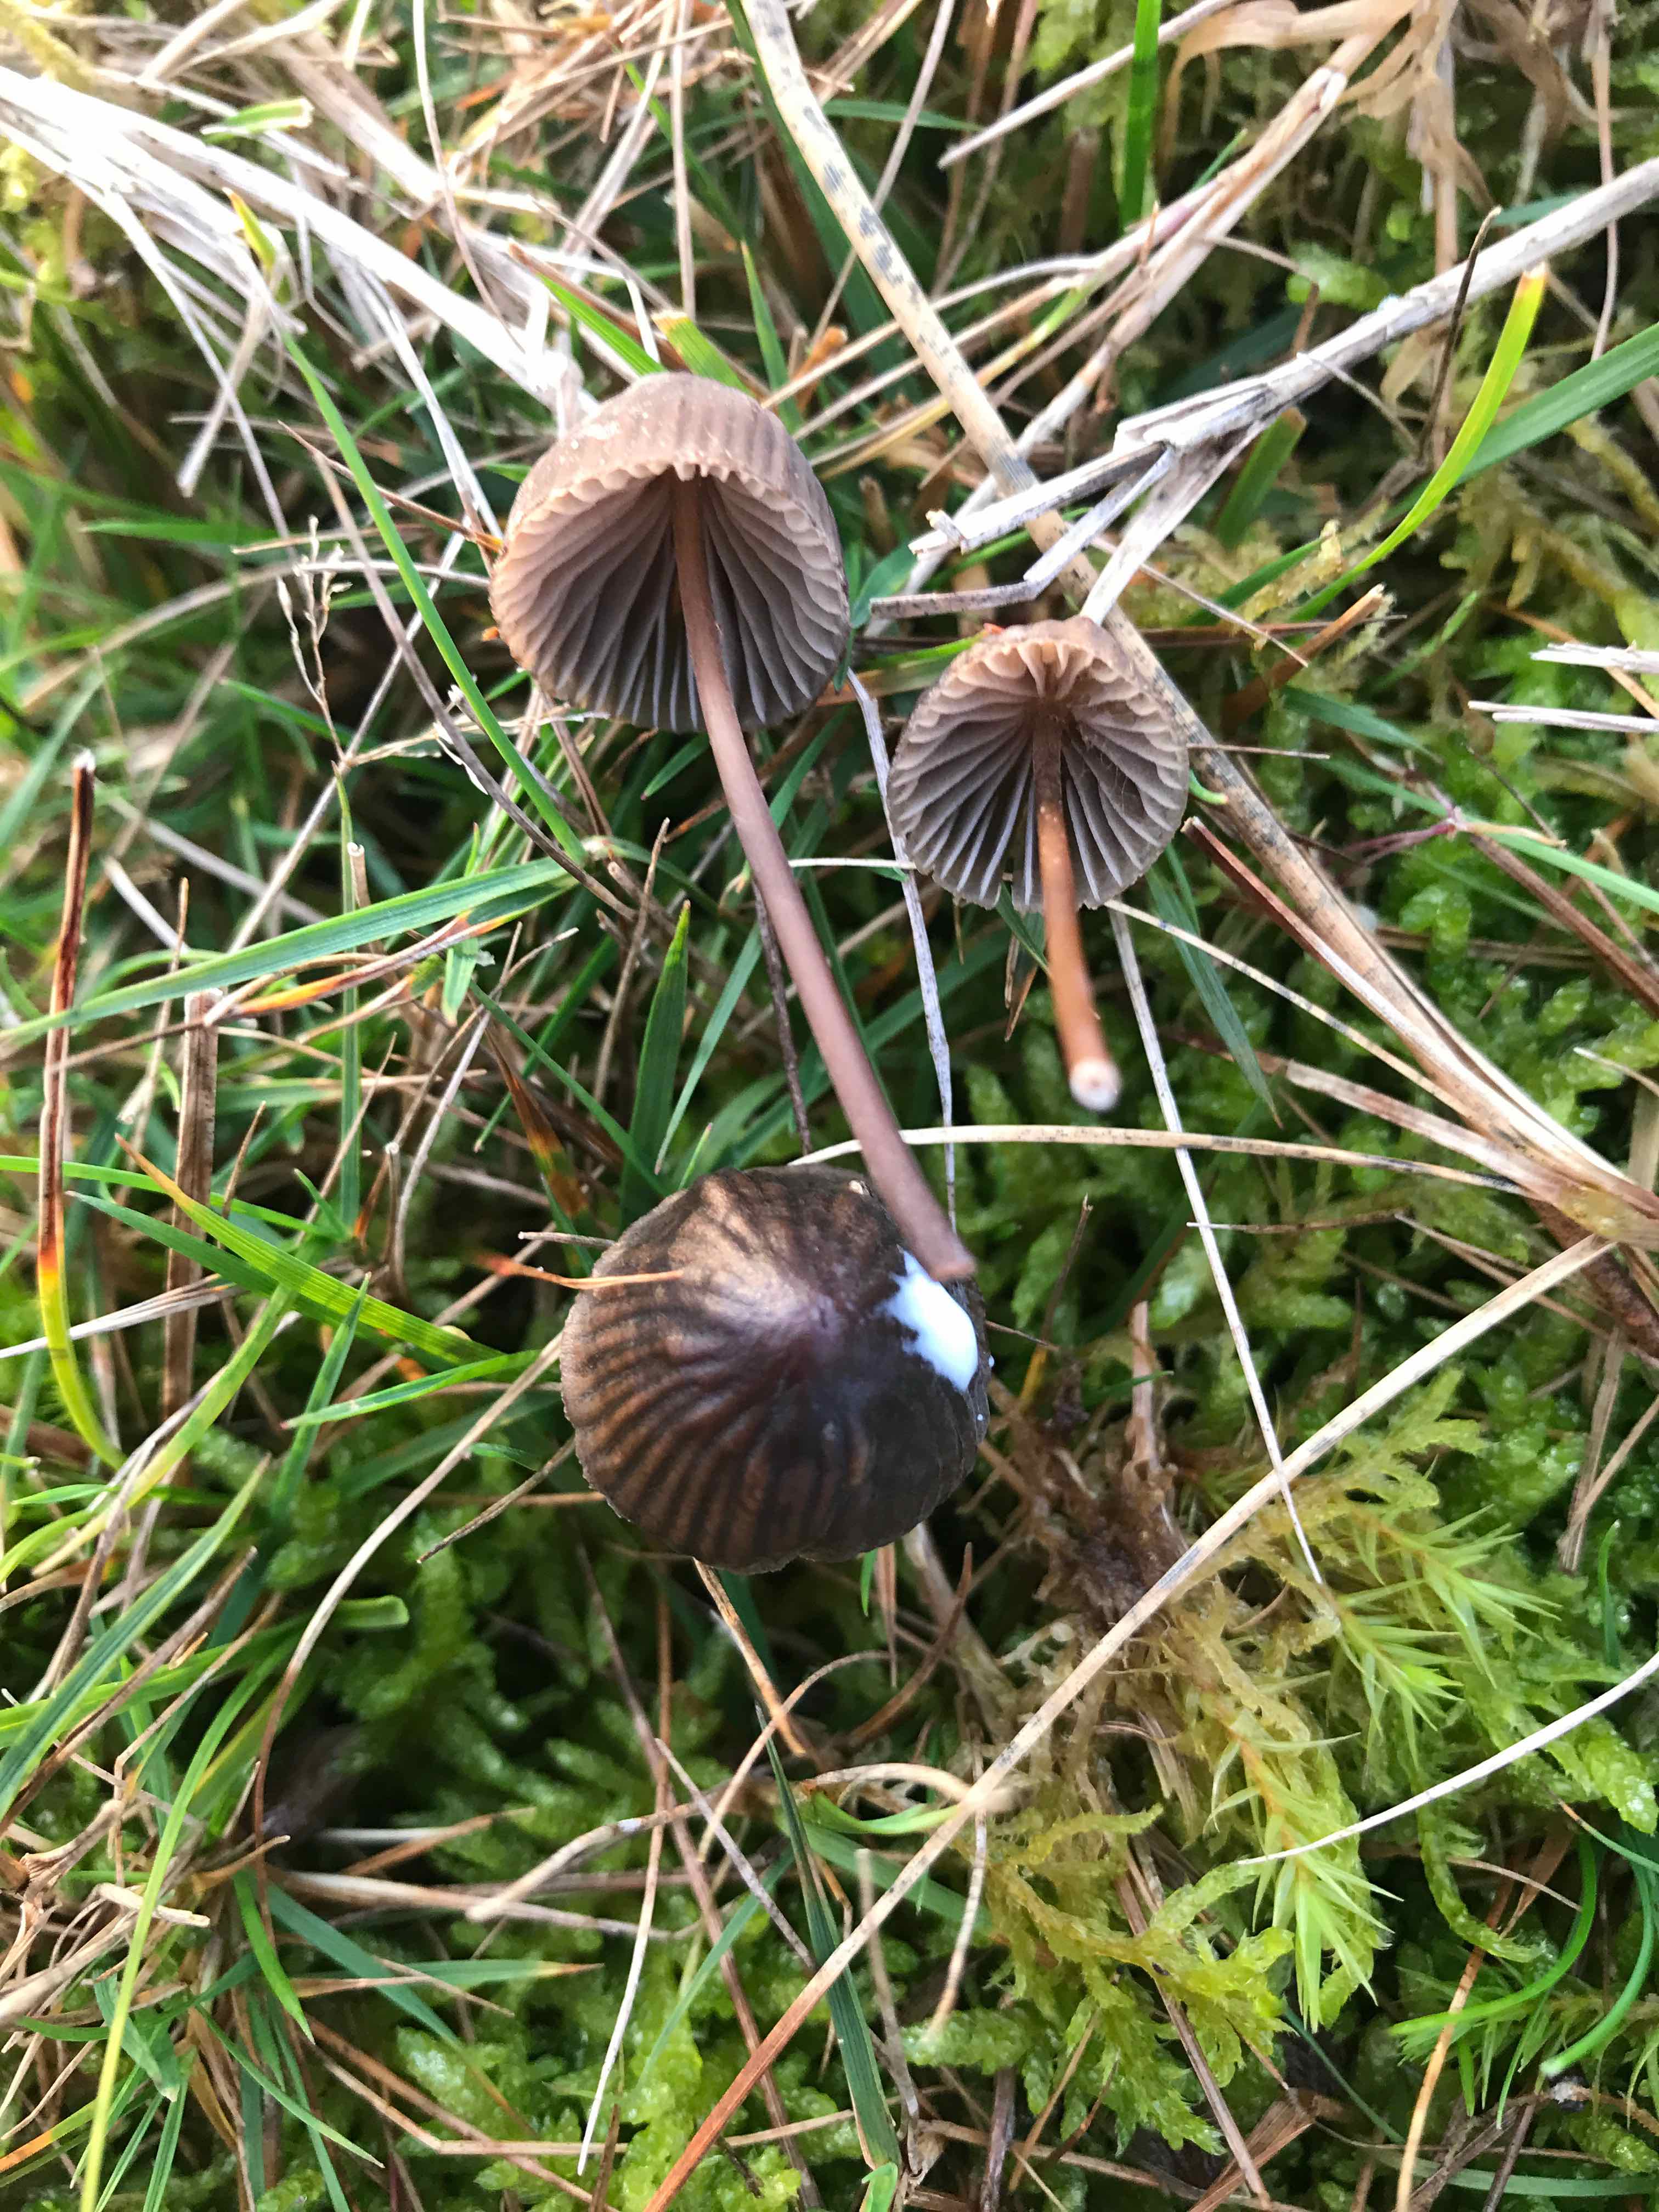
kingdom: Fungi
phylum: Basidiomycota
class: Agaricomycetes
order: Agaricales
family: Mycenaceae
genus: Mycena
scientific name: Mycena galopus
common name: hvidmælket huesvamp
